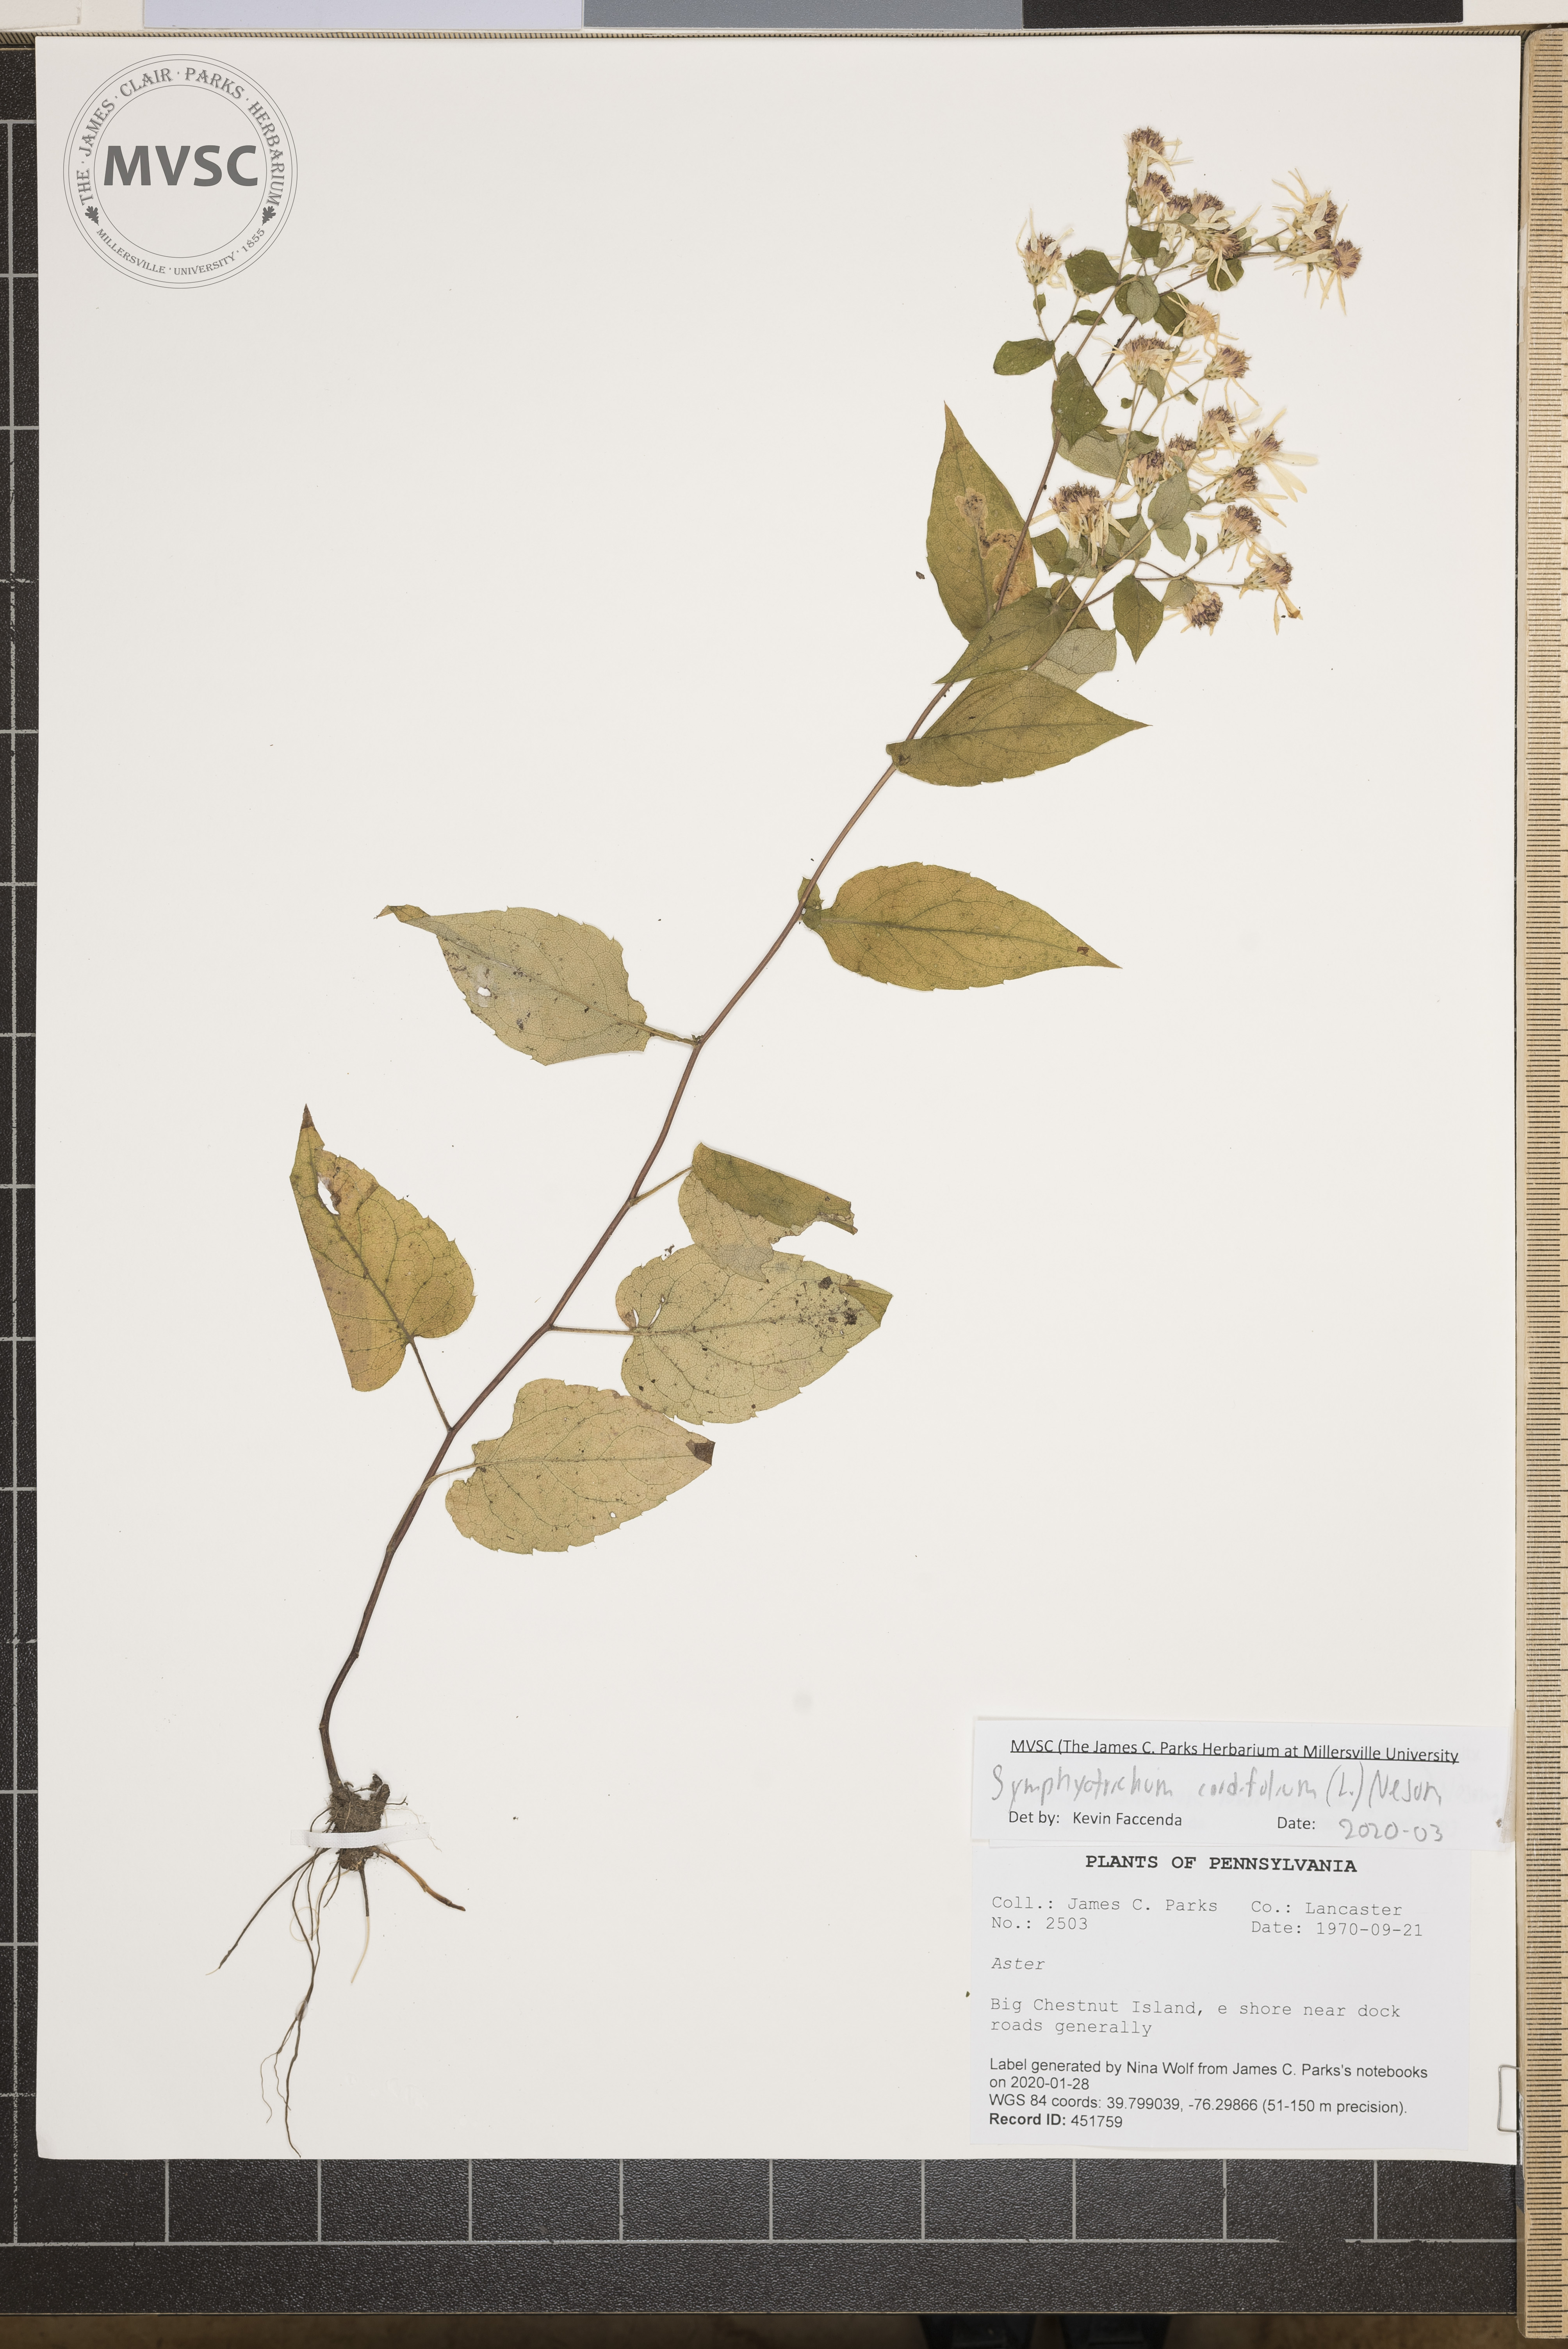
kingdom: Plantae
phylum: Tracheophyta
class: Magnoliopsida
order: Asterales
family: Asteraceae
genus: Symphyotrichum
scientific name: Symphyotrichum cordifolium
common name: Beeweed
